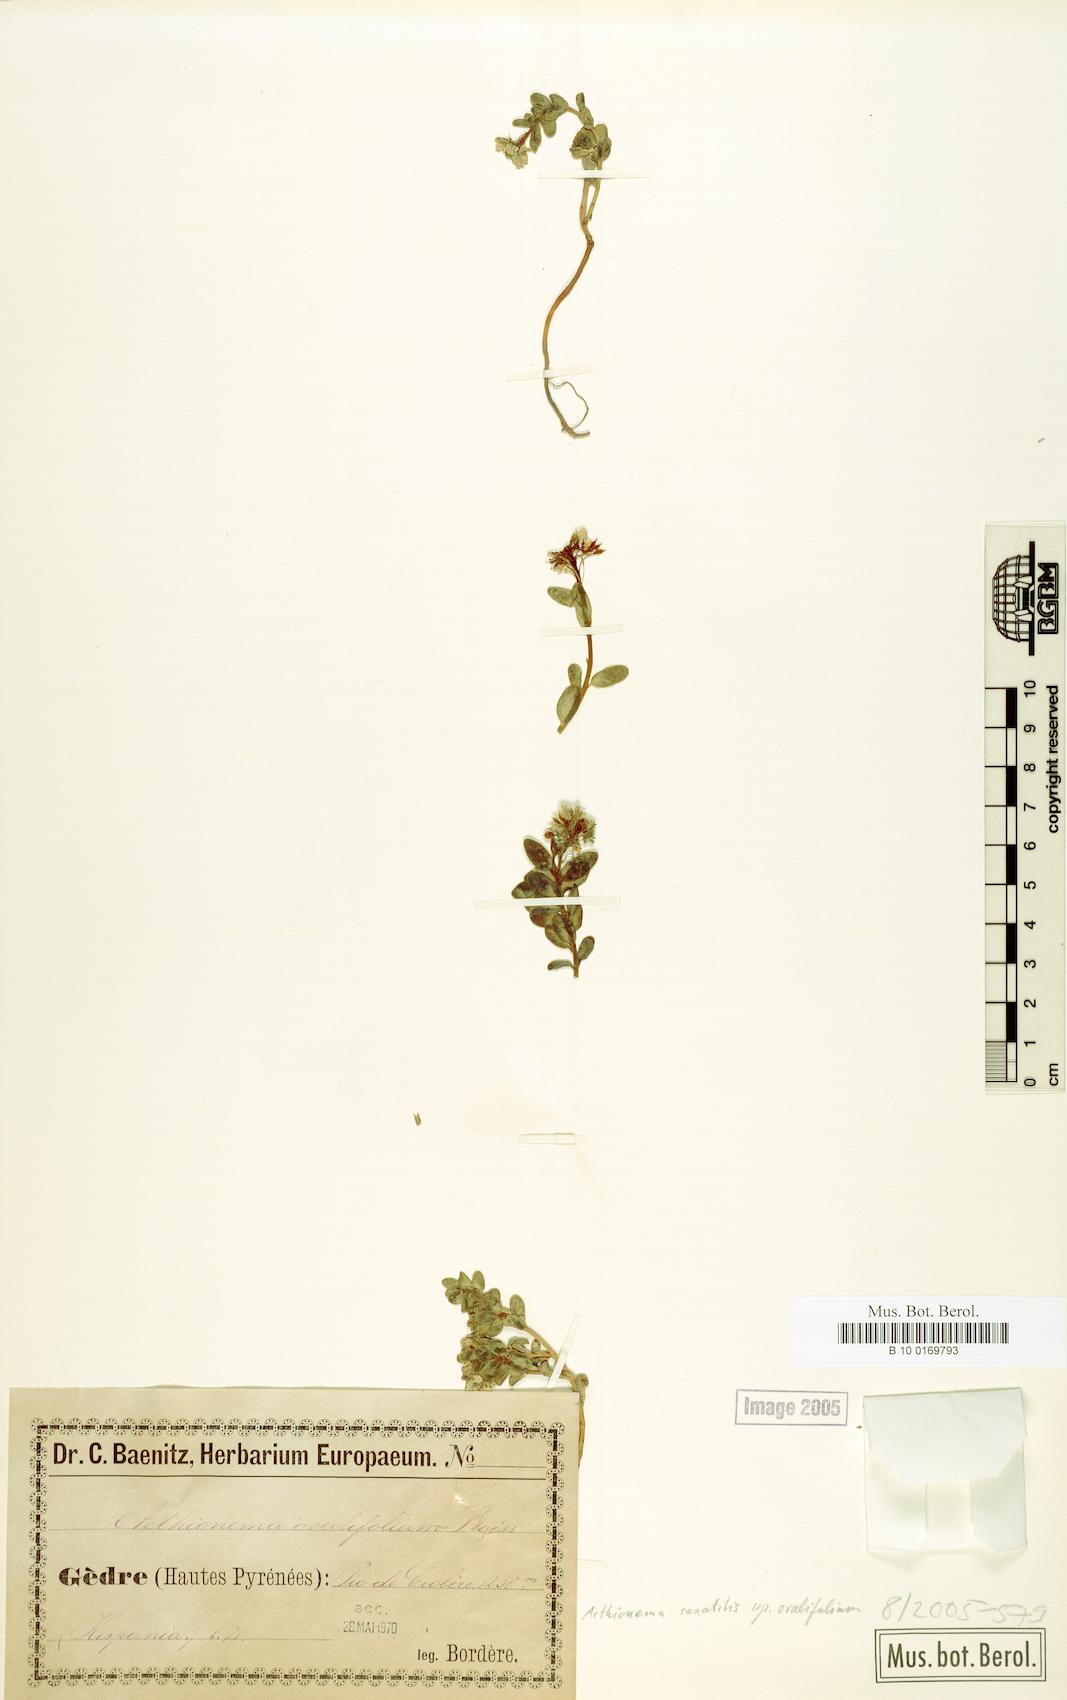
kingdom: Plantae
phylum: Tracheophyta
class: Magnoliopsida
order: Brassicales
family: Brassicaceae
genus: Aethionema
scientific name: Aethionema saxatile
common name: Burnt candytuft
